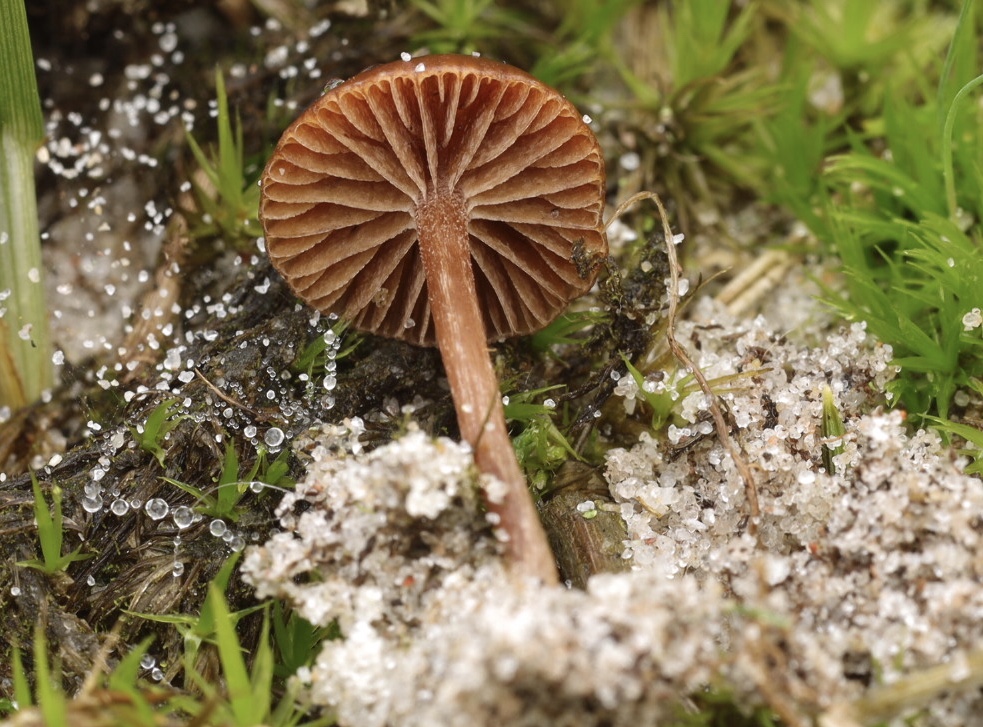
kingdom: Fungi
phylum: Basidiomycota
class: Agaricomycetes
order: Agaricales
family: Strophariaceae
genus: Deconica
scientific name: Deconica montana
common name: rødbrun stråhat
